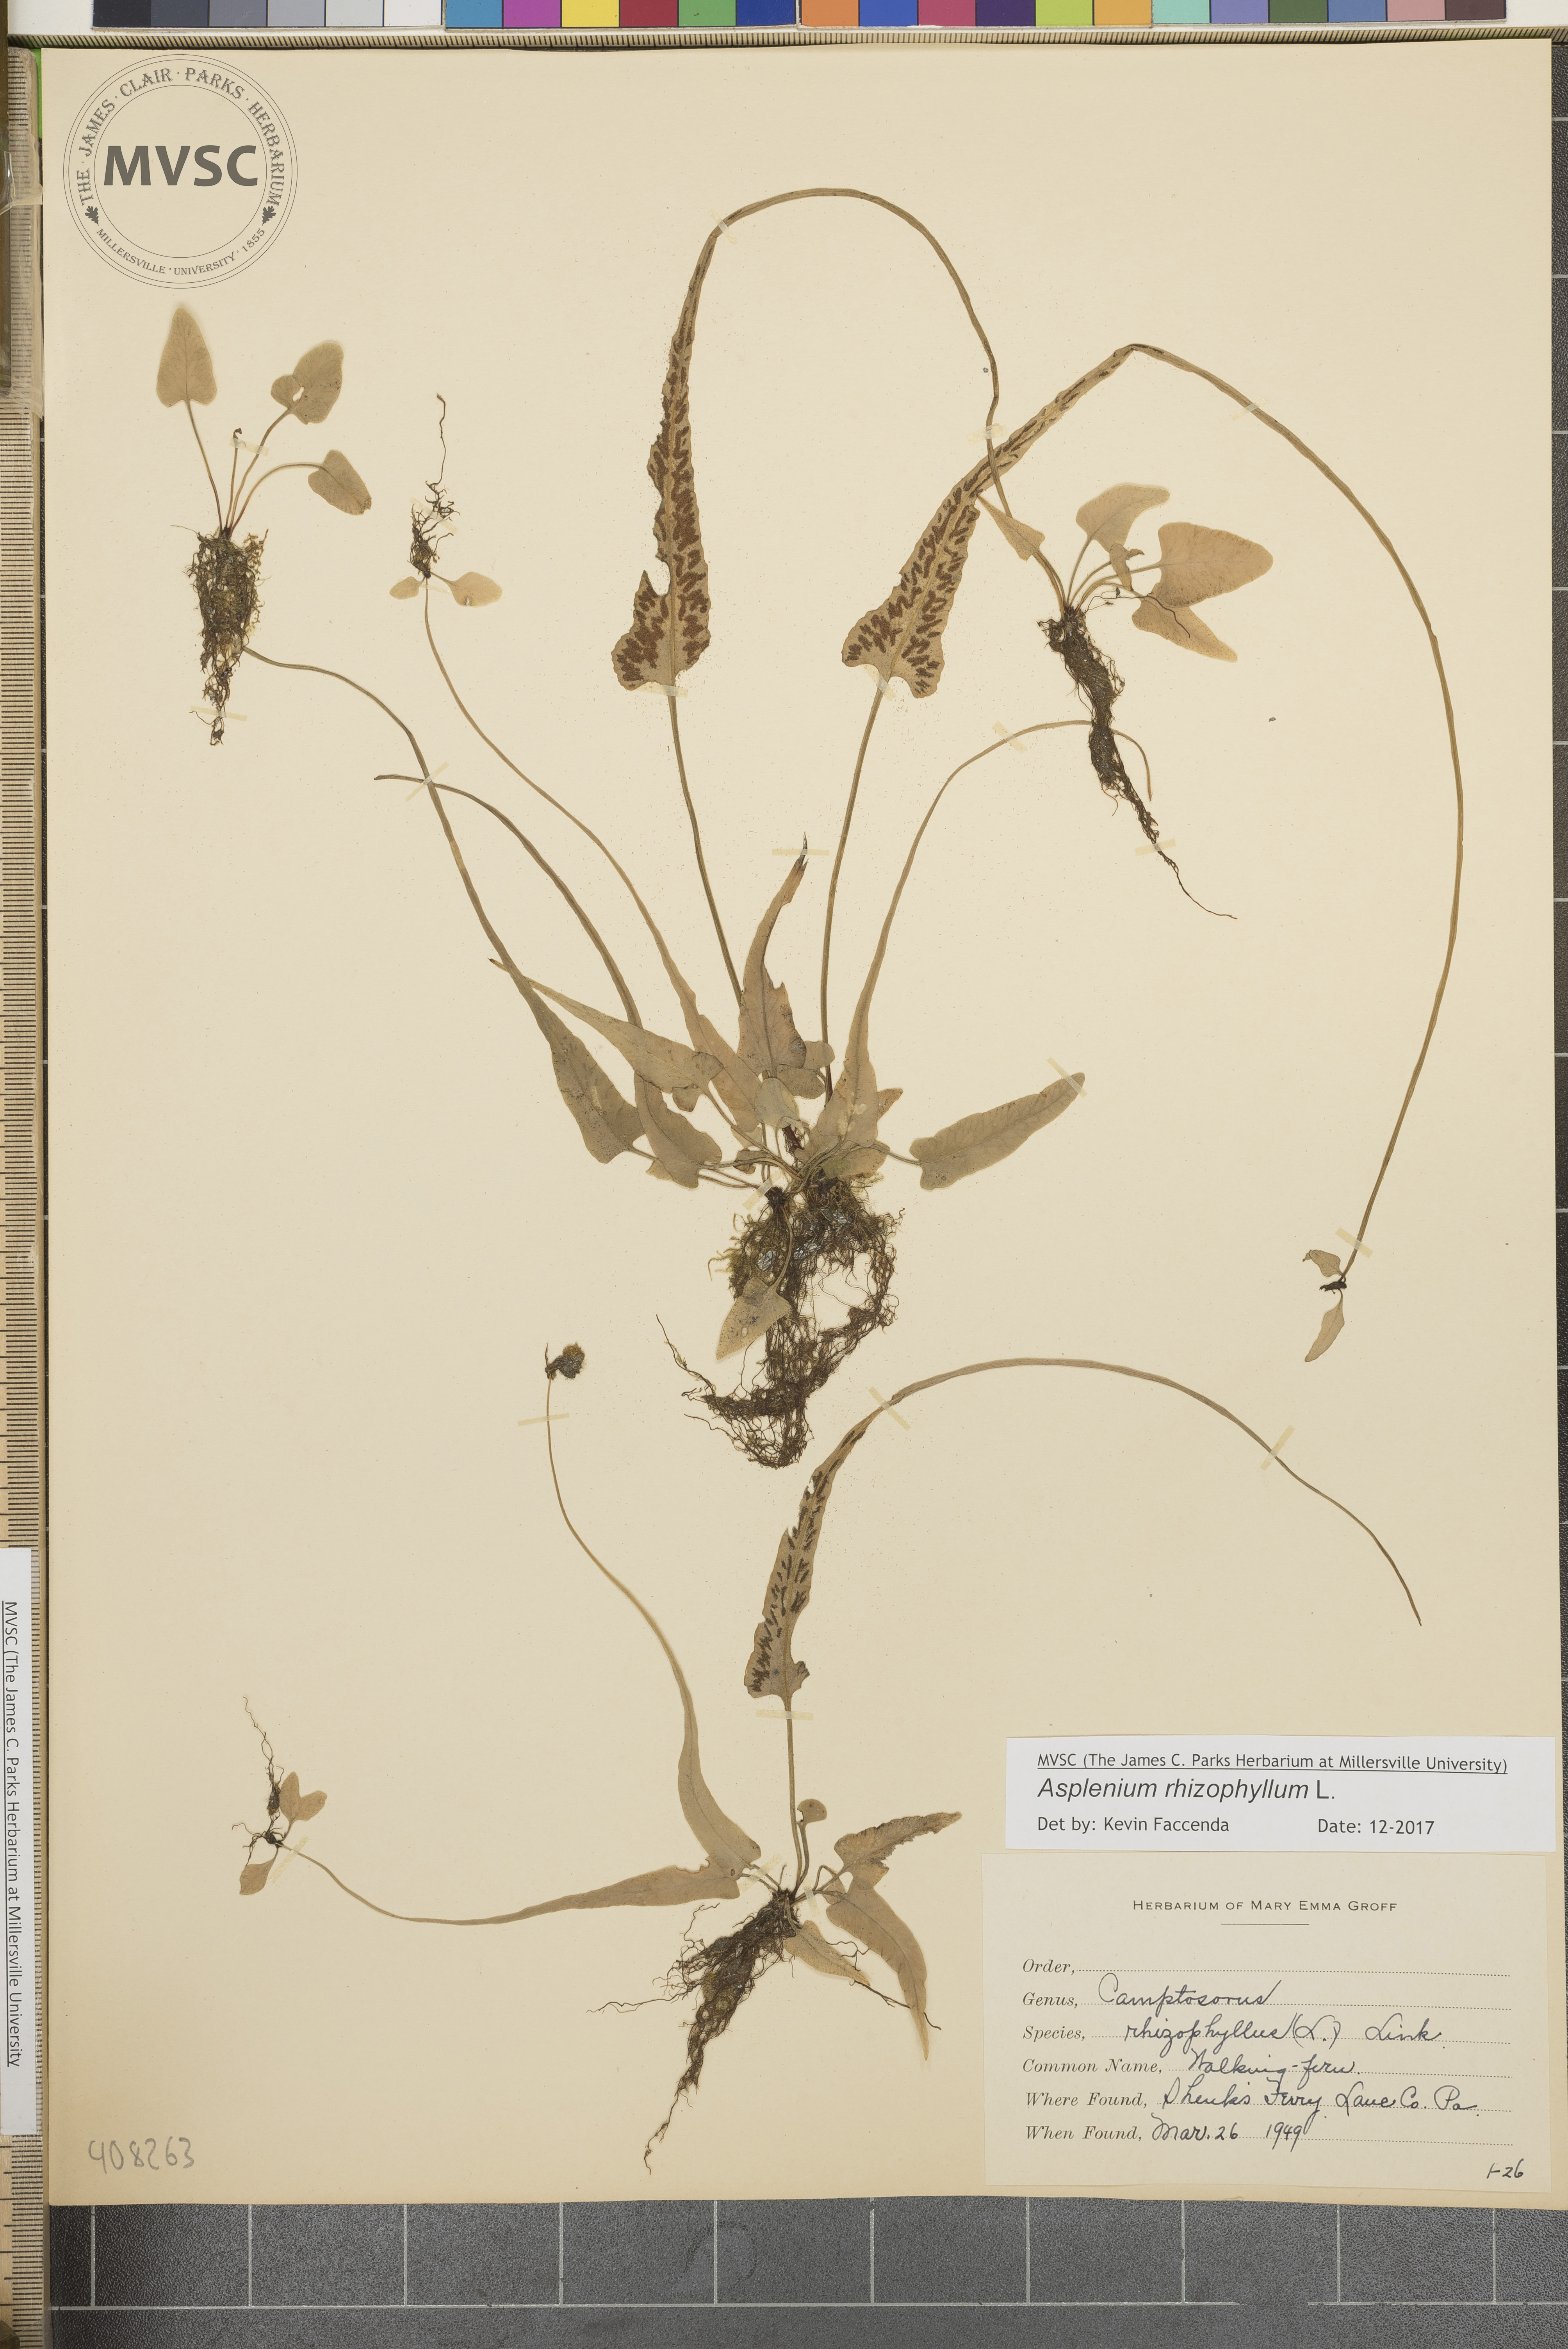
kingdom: Plantae
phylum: Tracheophyta
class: Polypodiopsida
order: Polypodiales
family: Aspleniaceae
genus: Asplenium
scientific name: Asplenium rhizophyllum
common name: Walking fern
